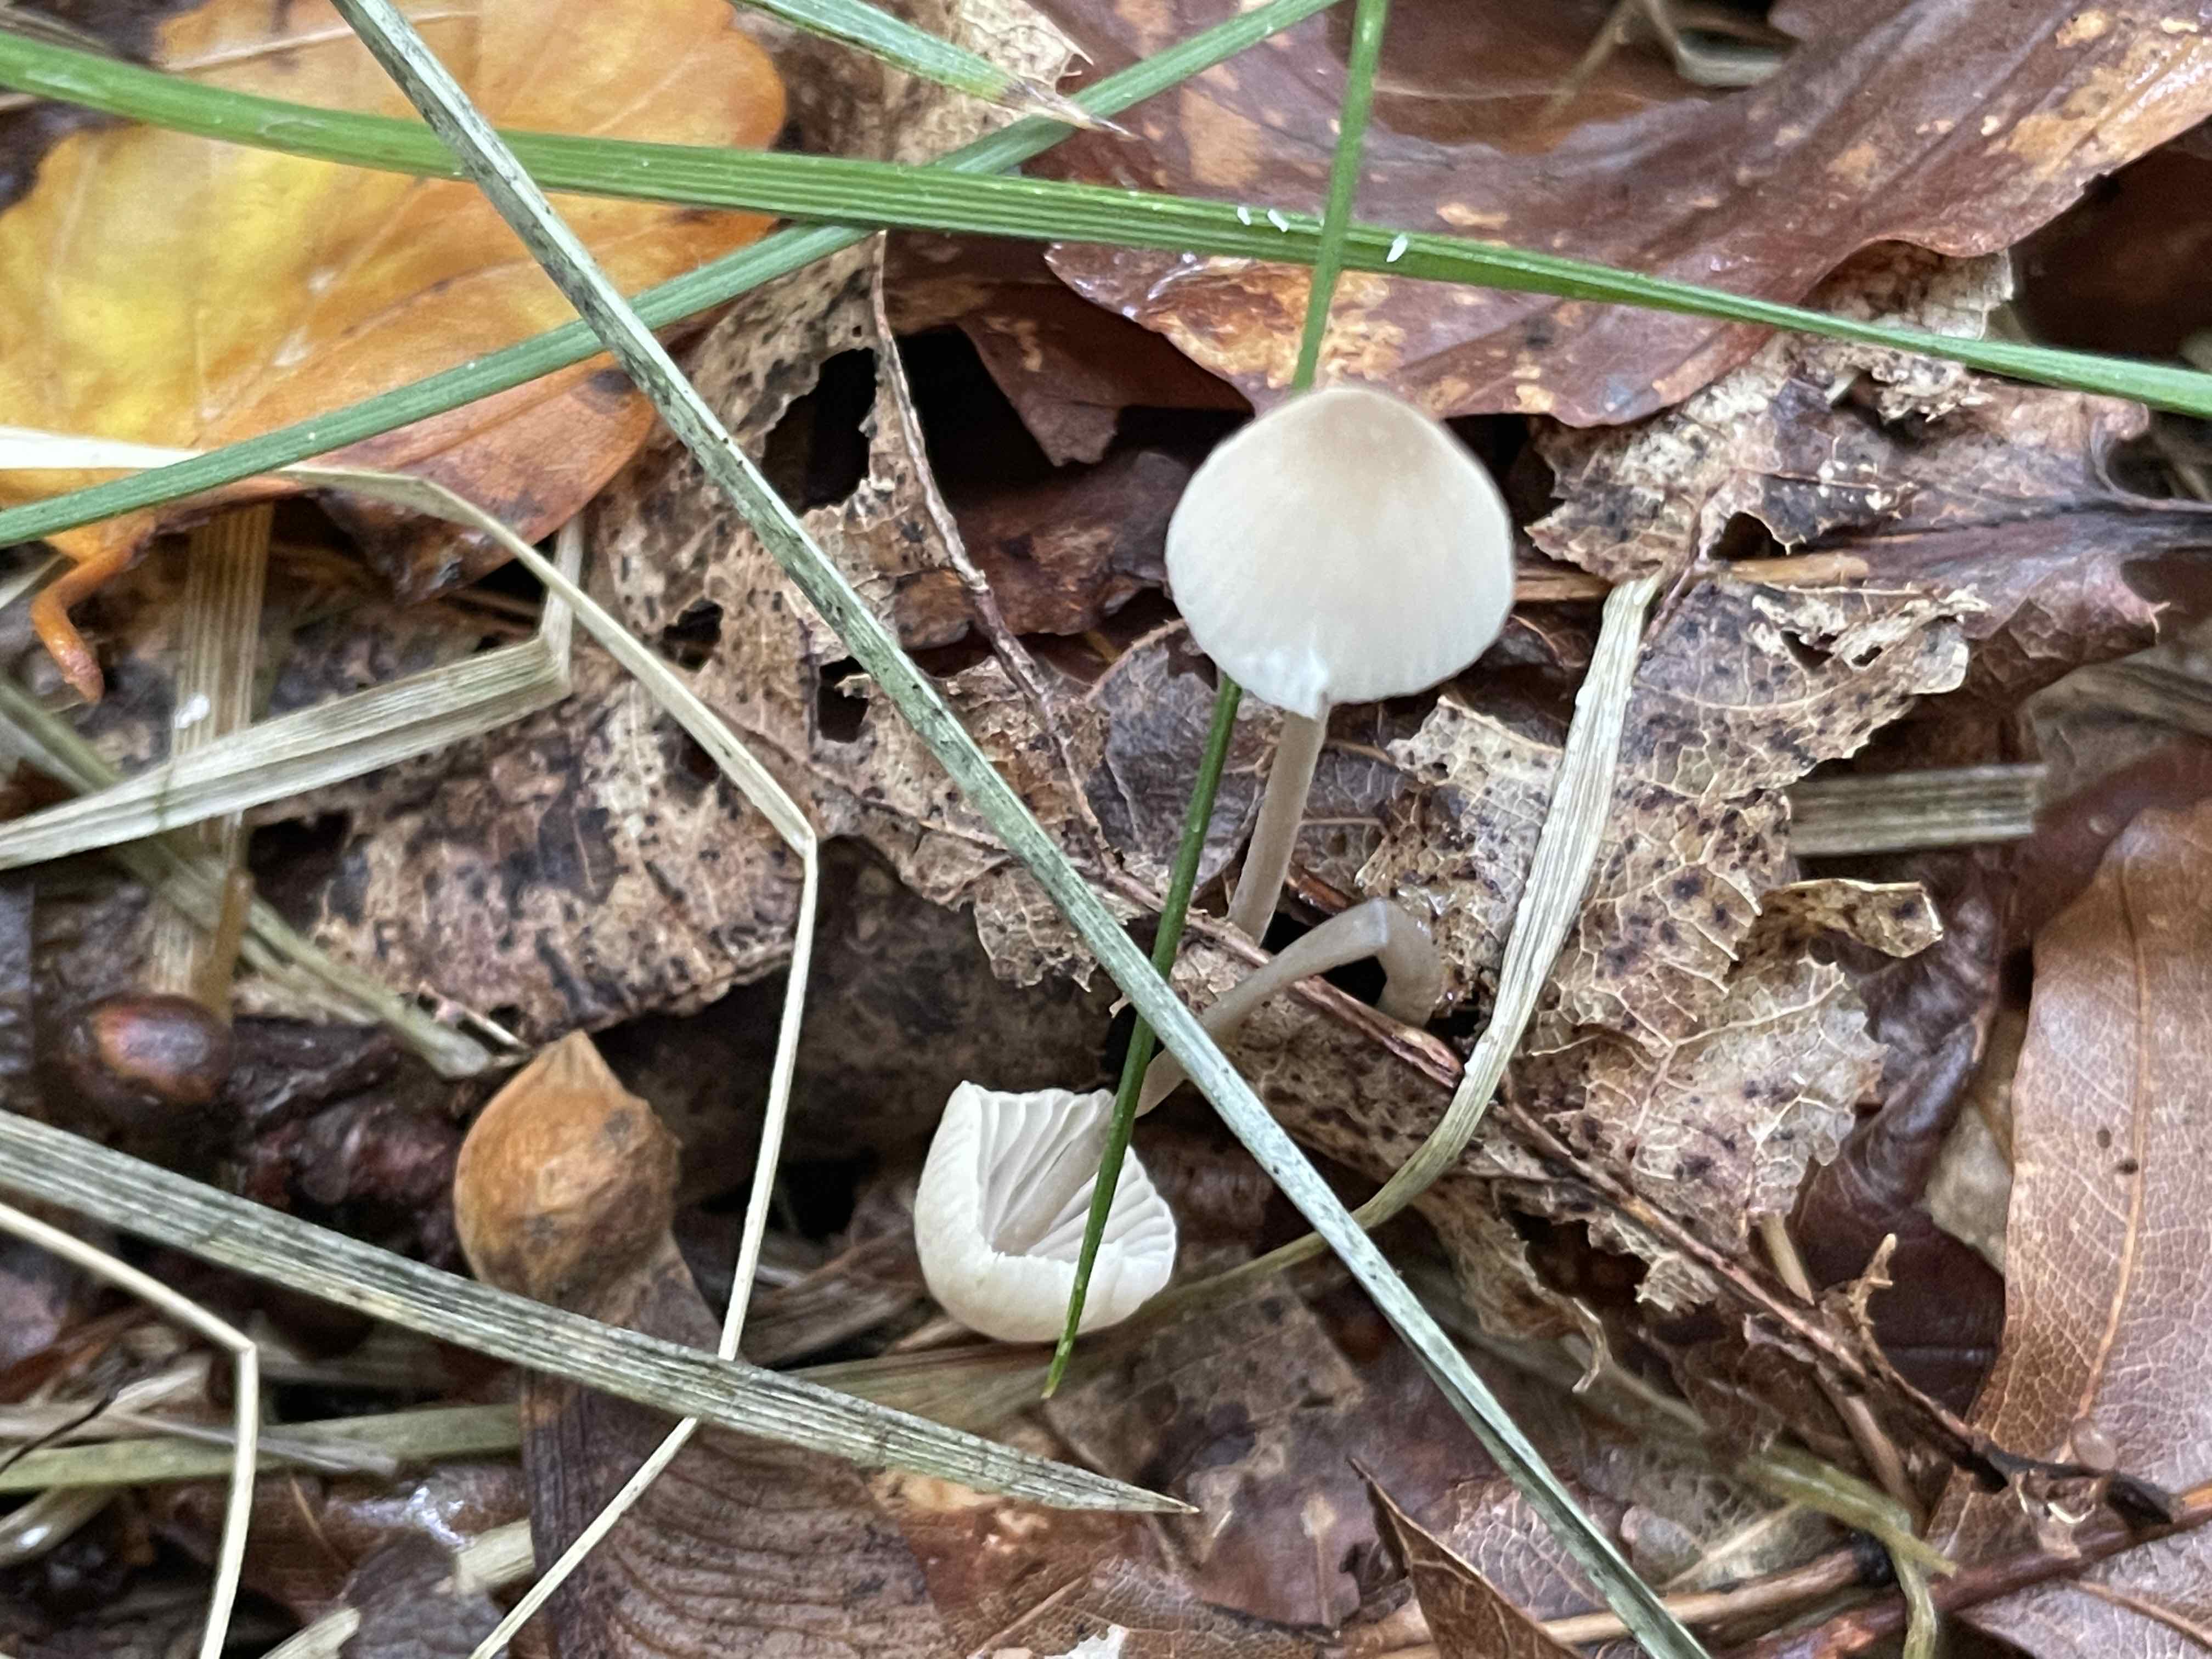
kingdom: Fungi
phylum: Basidiomycota
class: Agaricomycetes
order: Agaricales
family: Mycenaceae
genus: Mycena
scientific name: Mycena flavescens
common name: grågul huesvamp
